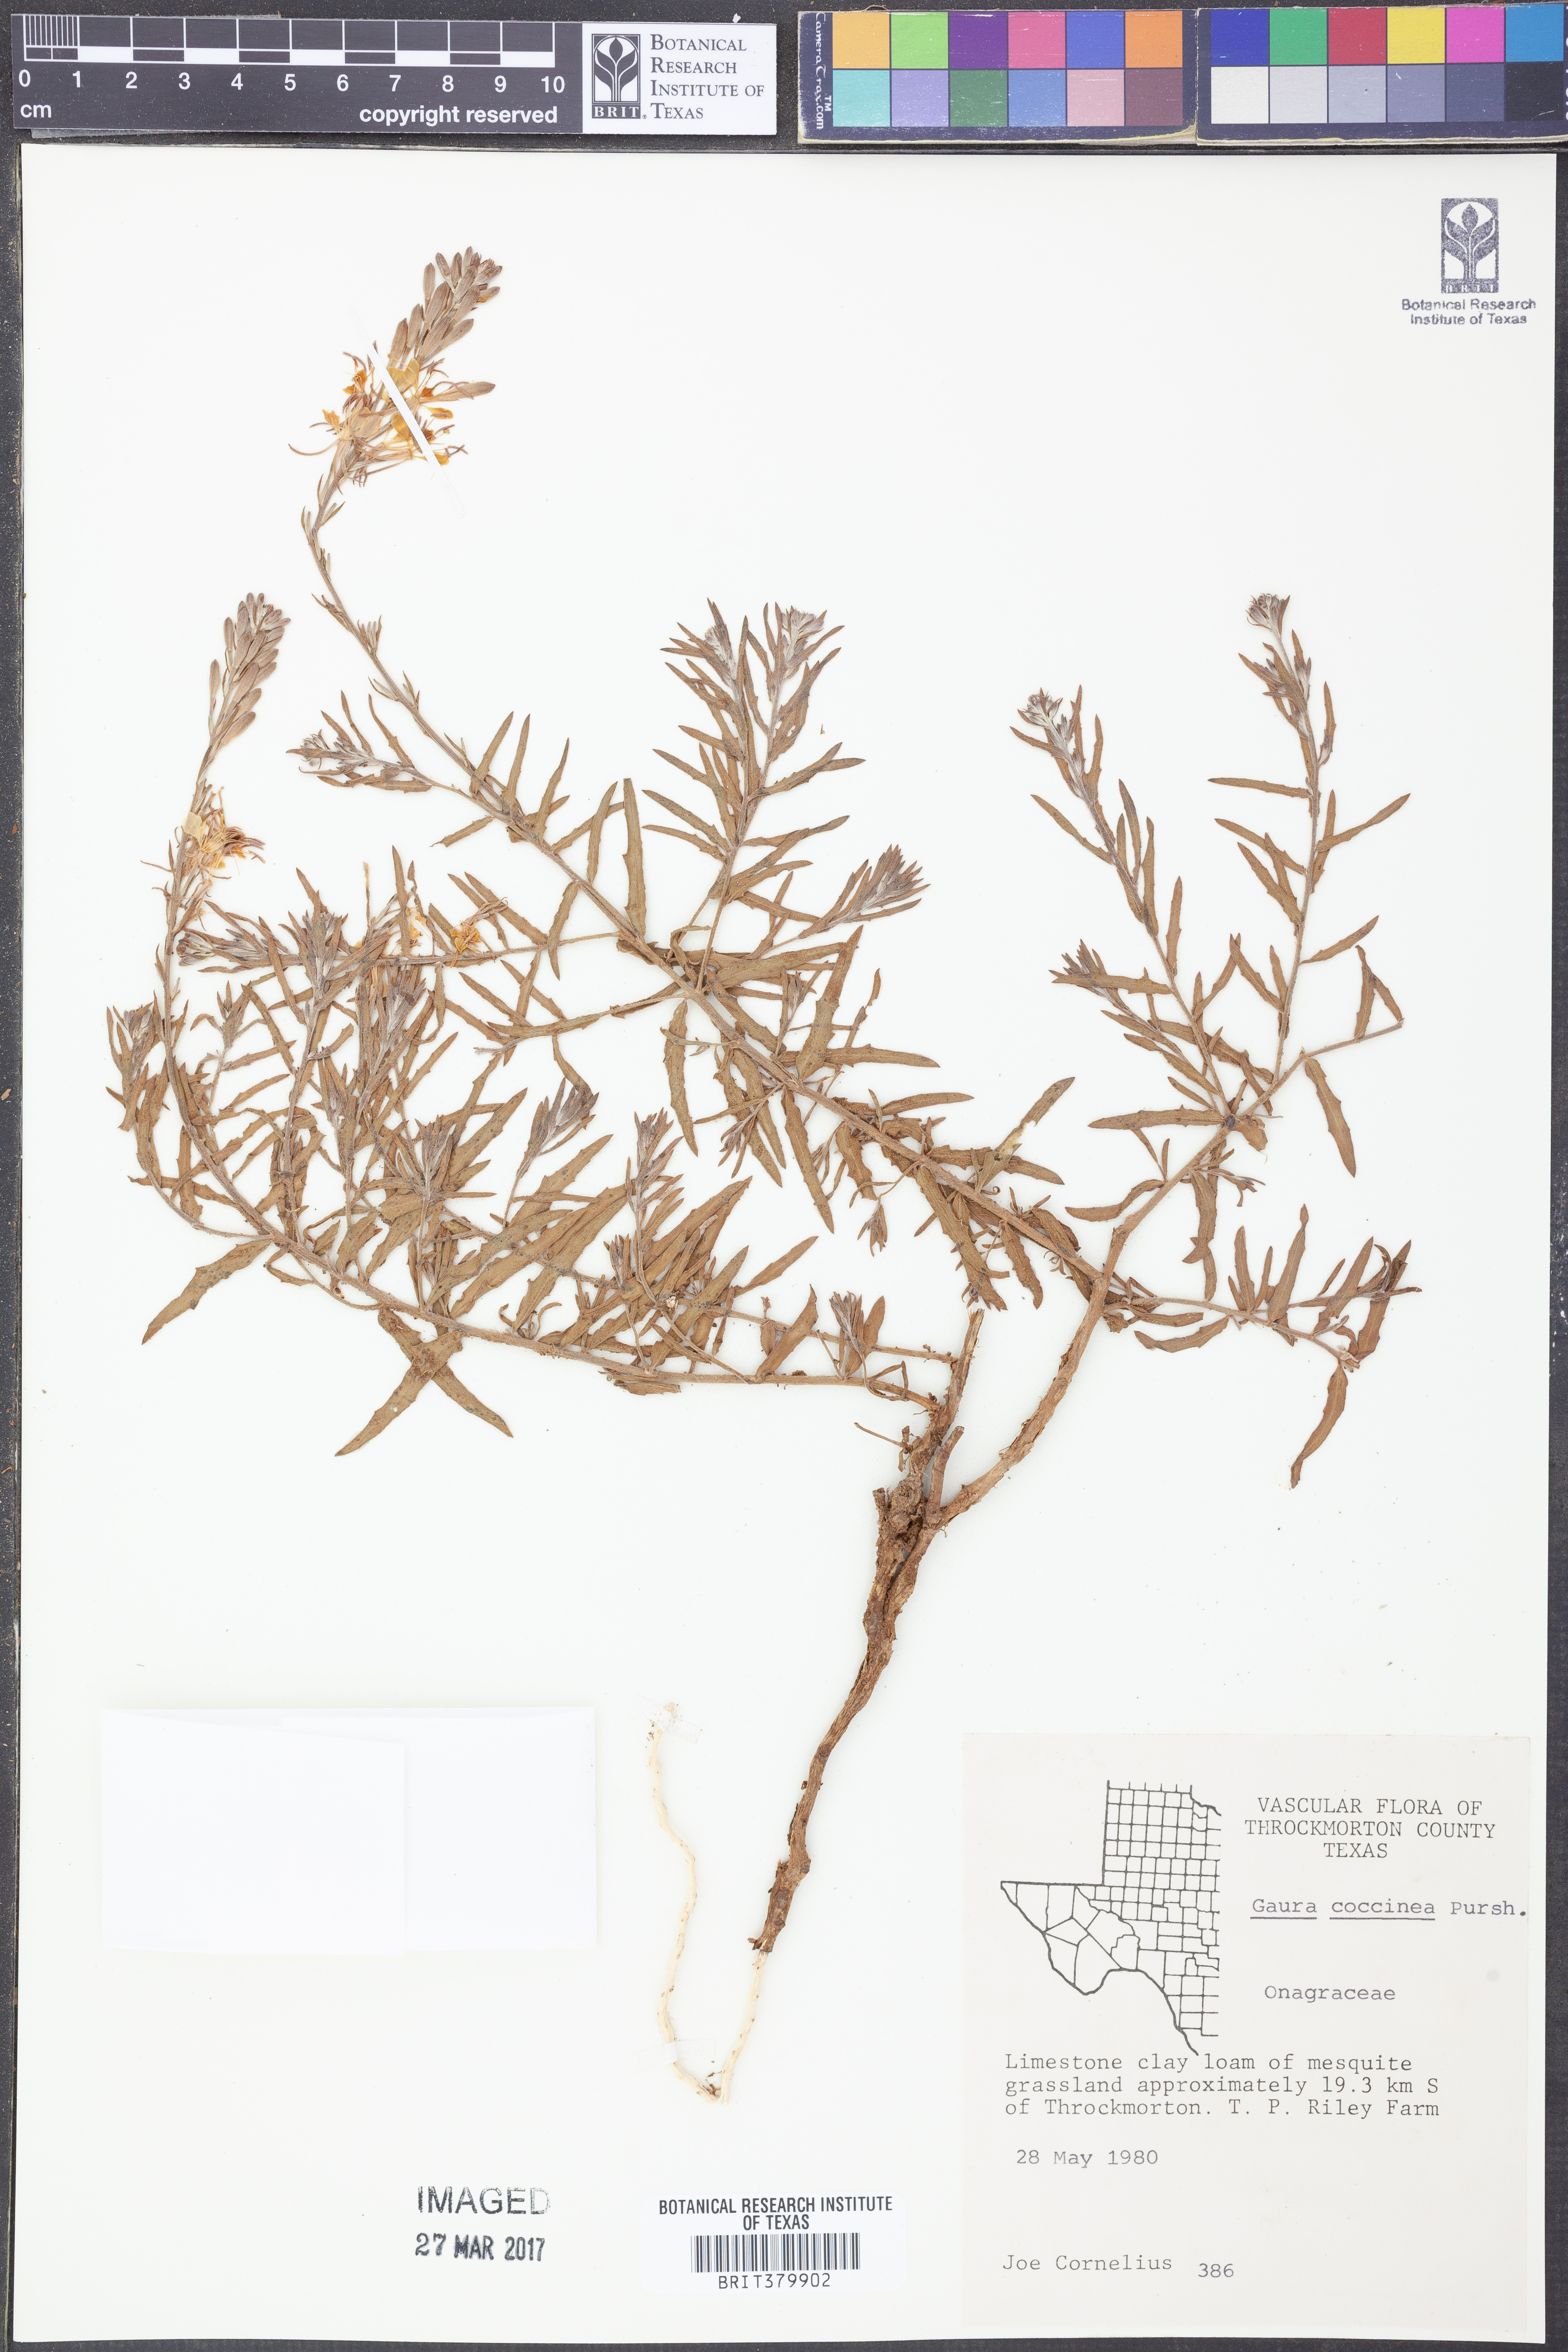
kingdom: Plantae
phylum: Tracheophyta
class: Magnoliopsida
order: Myrtales
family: Onagraceae
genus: Oenothera
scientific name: Oenothera suffrutescens
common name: Scarlet beeblossom
